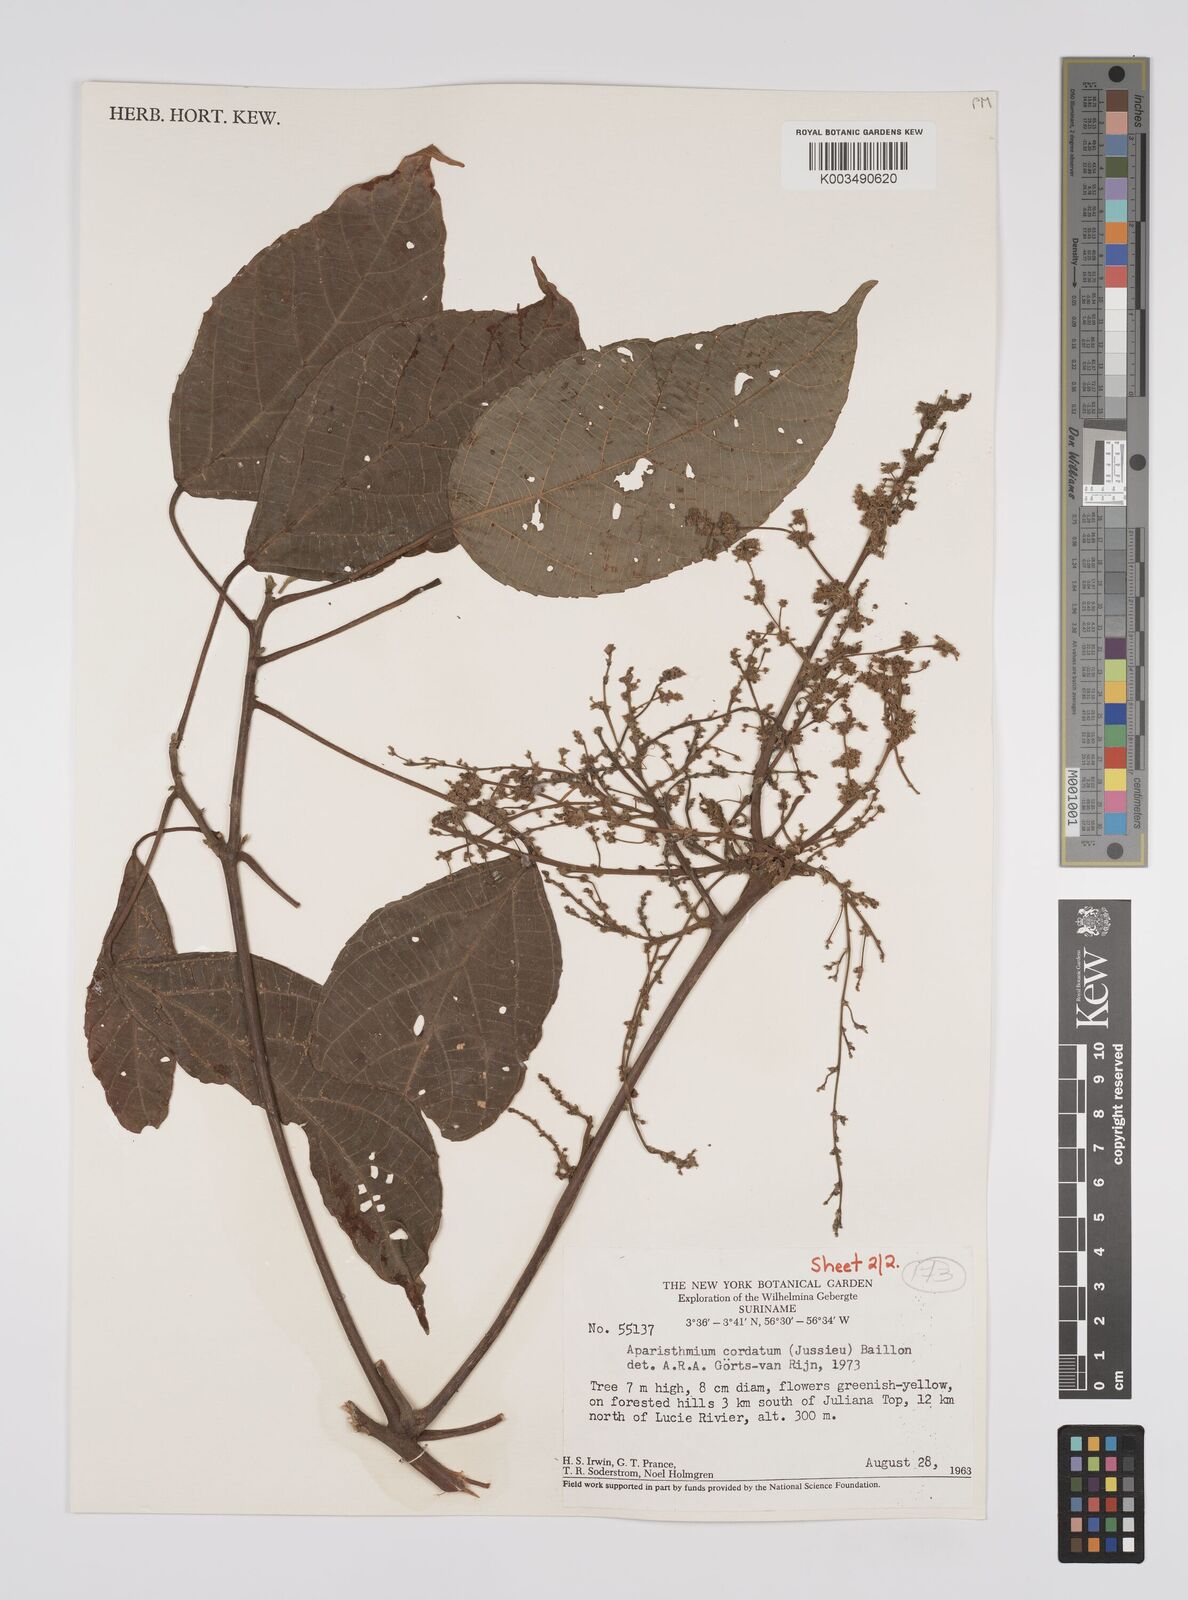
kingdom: Plantae
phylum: Tracheophyta
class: Magnoliopsida
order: Malpighiales
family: Euphorbiaceae
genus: Aparisthmium
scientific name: Aparisthmium cordatum
